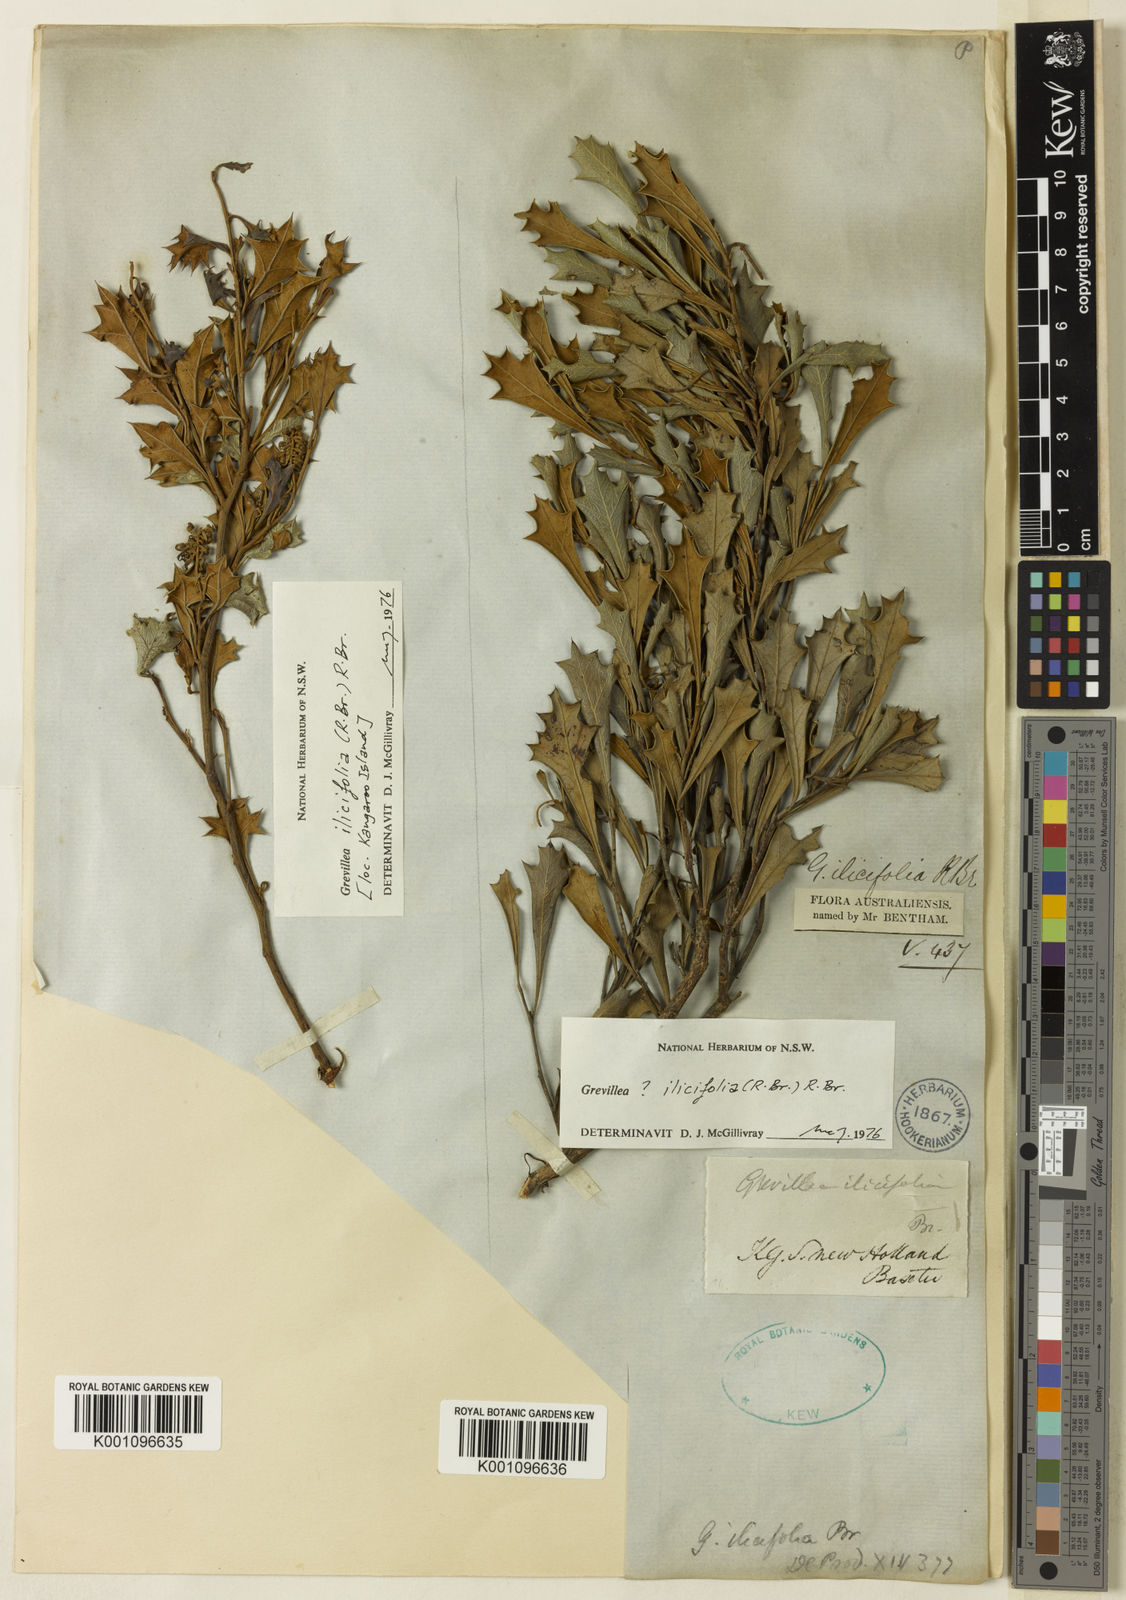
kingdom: Plantae
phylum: Tracheophyta
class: Magnoliopsida
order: Proteales
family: Proteaceae
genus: Grevillea
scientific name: Grevillea dilatata
